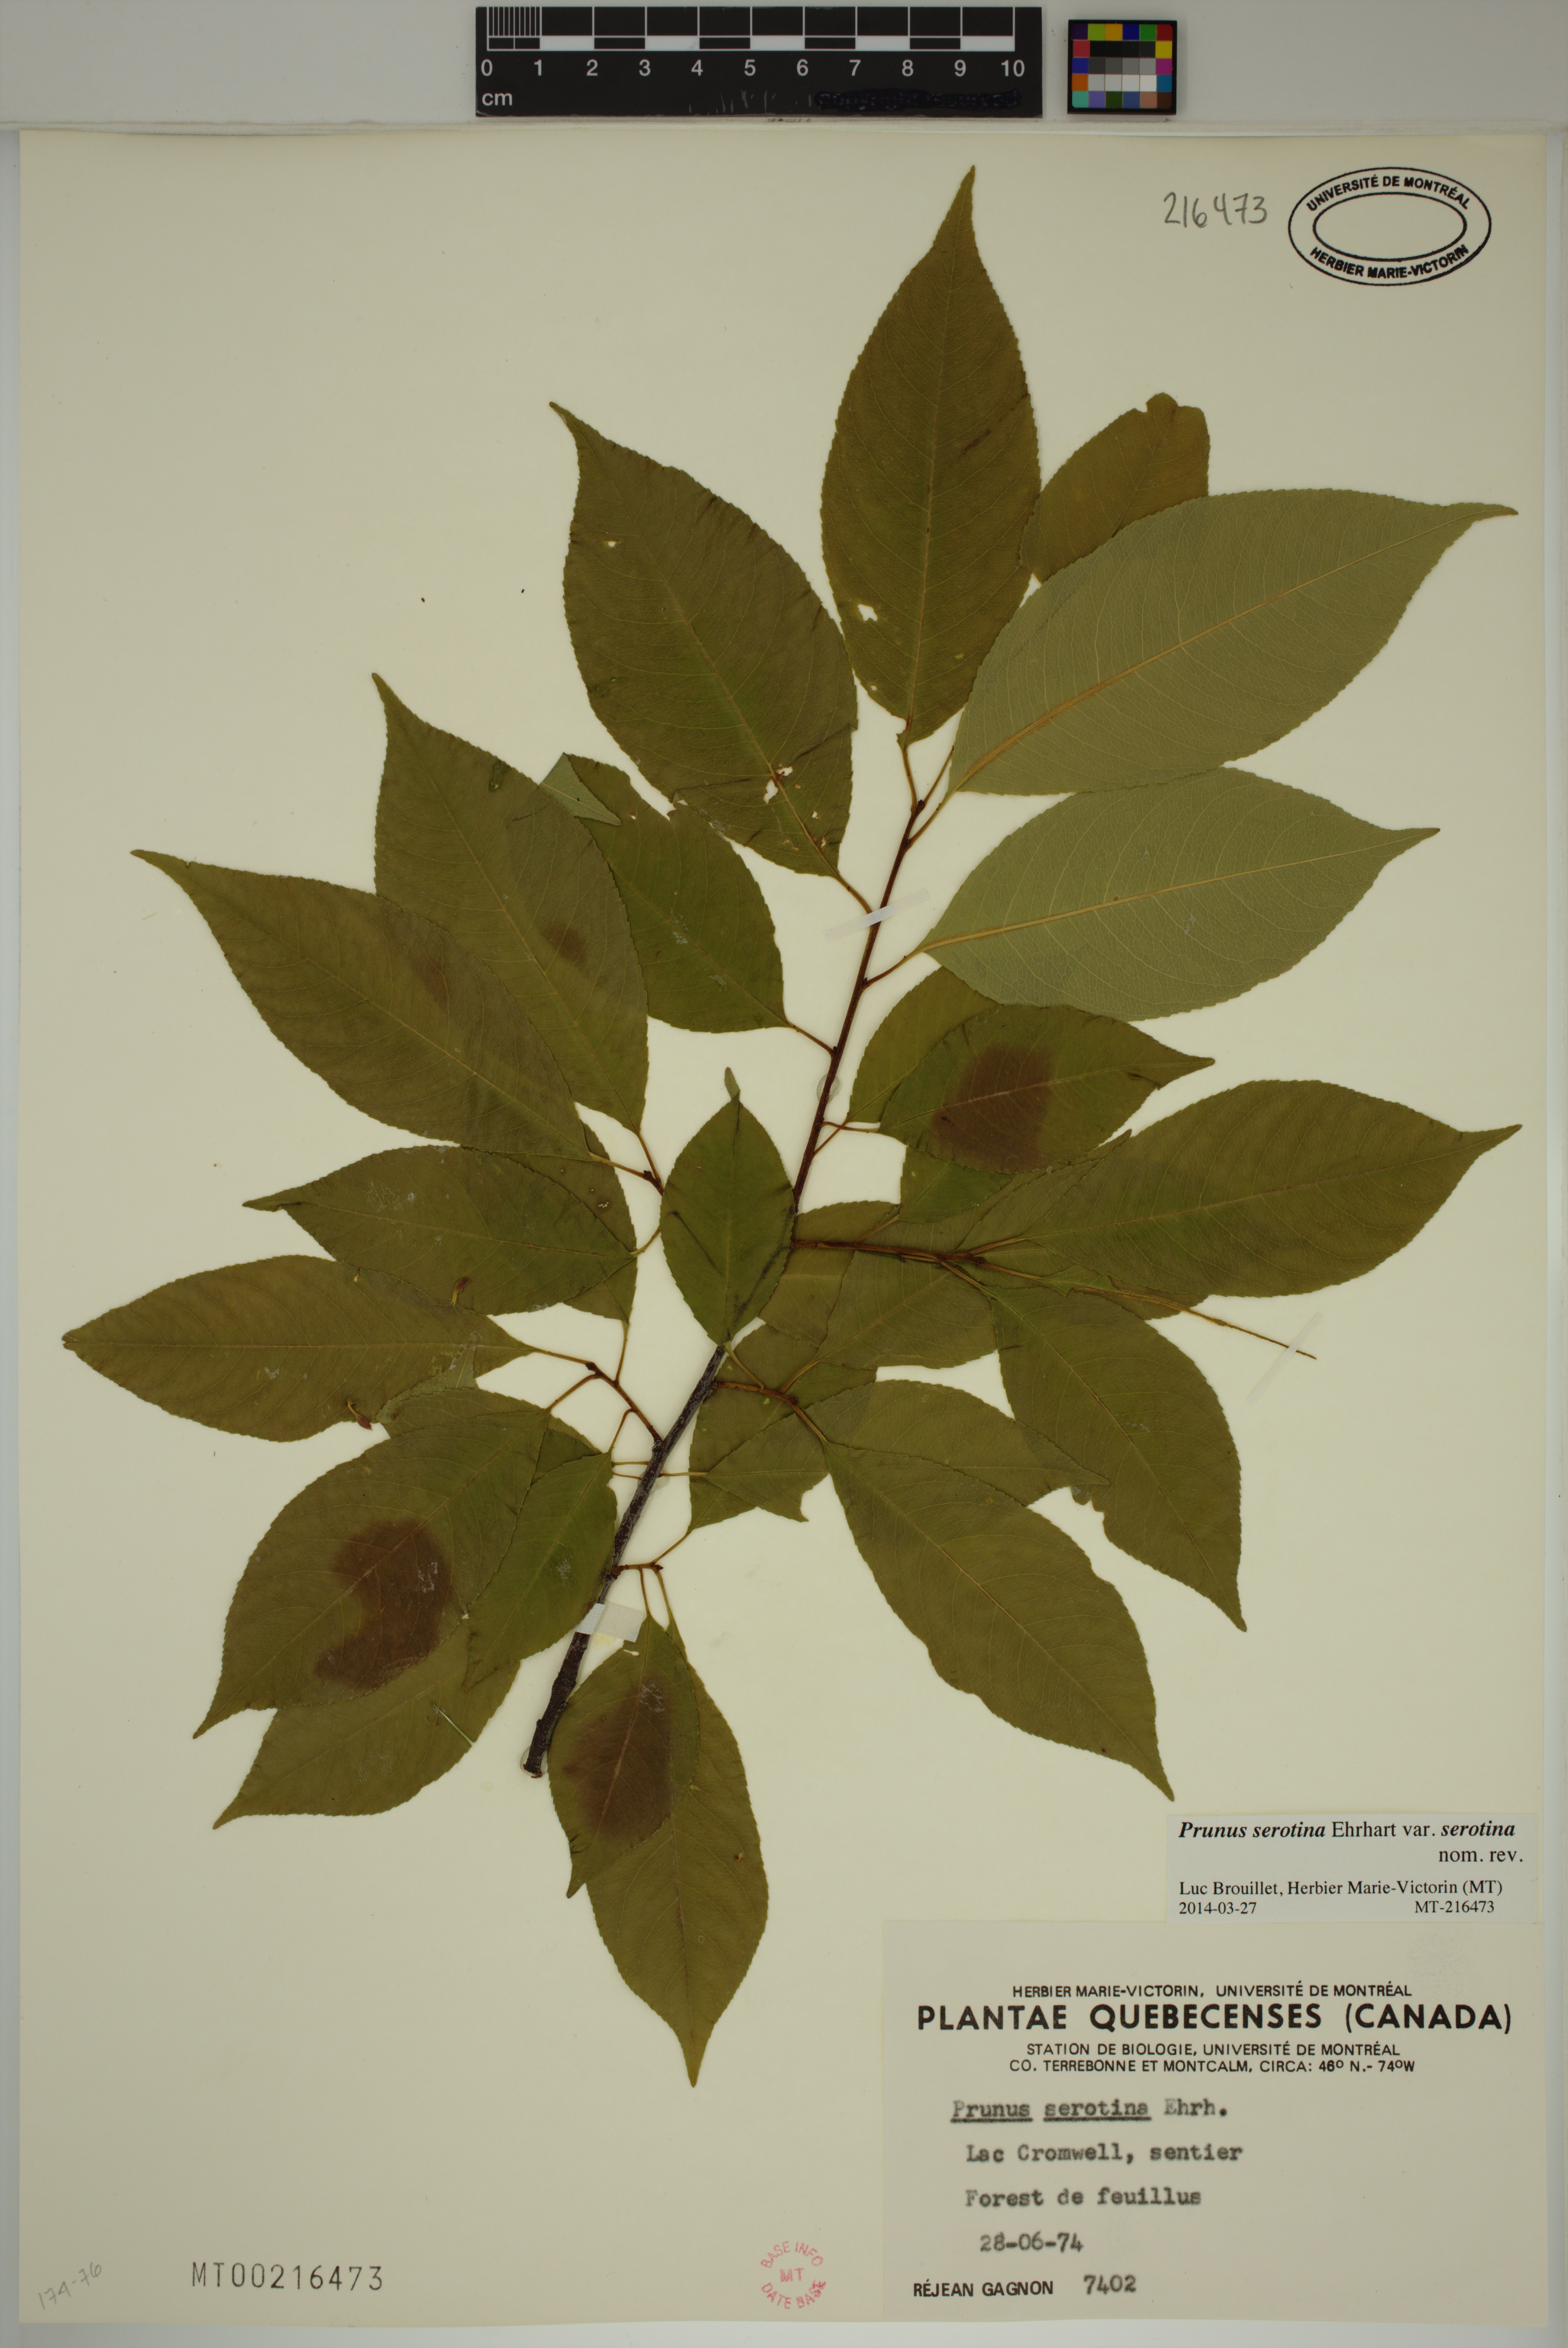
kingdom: Plantae
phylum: Tracheophyta
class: Magnoliopsida
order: Rosales
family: Rosaceae
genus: Prunus
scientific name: Prunus serotina
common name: Black cherry
